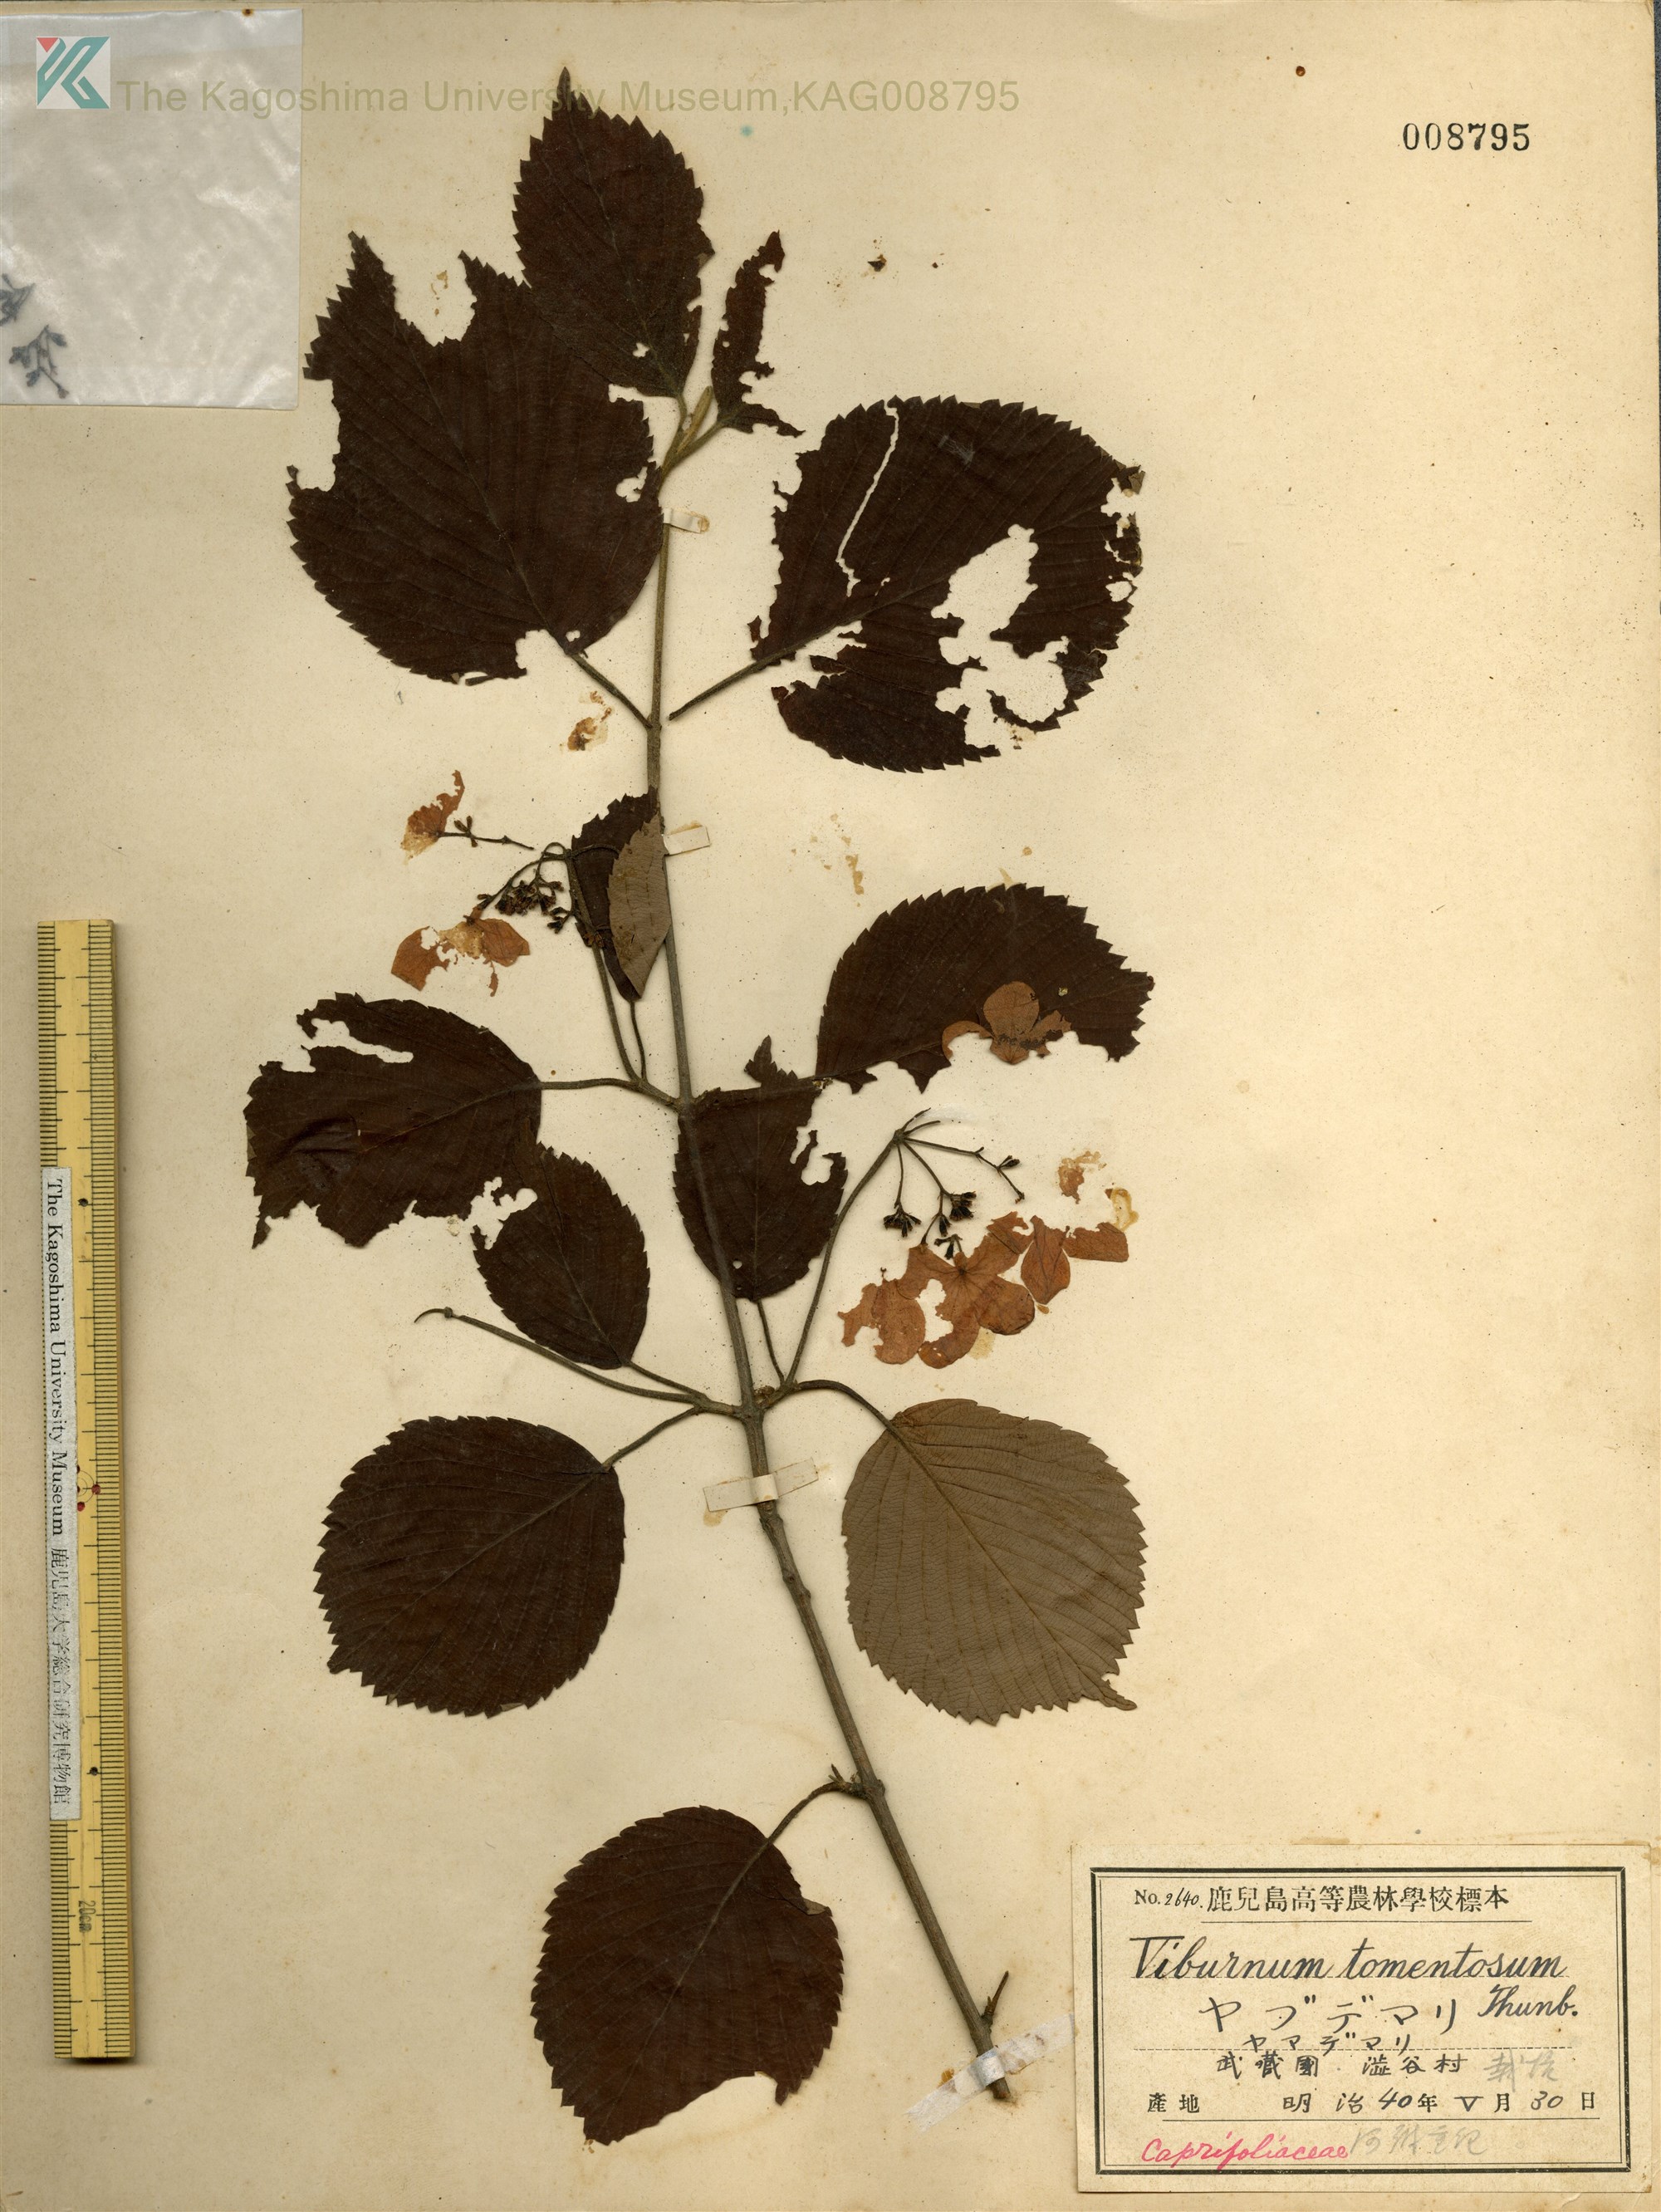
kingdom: Plantae
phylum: Tracheophyta
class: Magnoliopsida
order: Dipsacales
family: Viburnaceae
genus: Viburnum
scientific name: Viburnum plicatum
